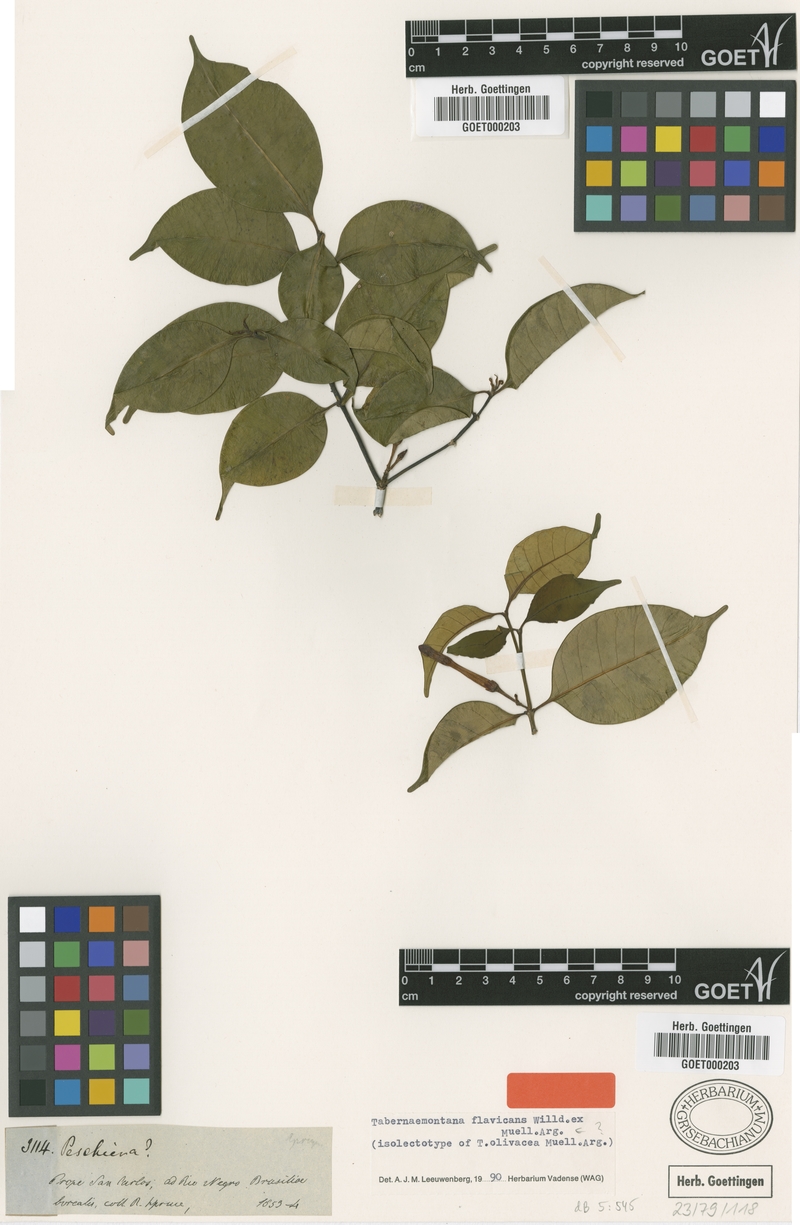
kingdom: Plantae
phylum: Tracheophyta
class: Magnoliopsida
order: Gentianales
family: Apocynaceae
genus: Tabernaemontana
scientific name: Tabernaemontana flavicans
